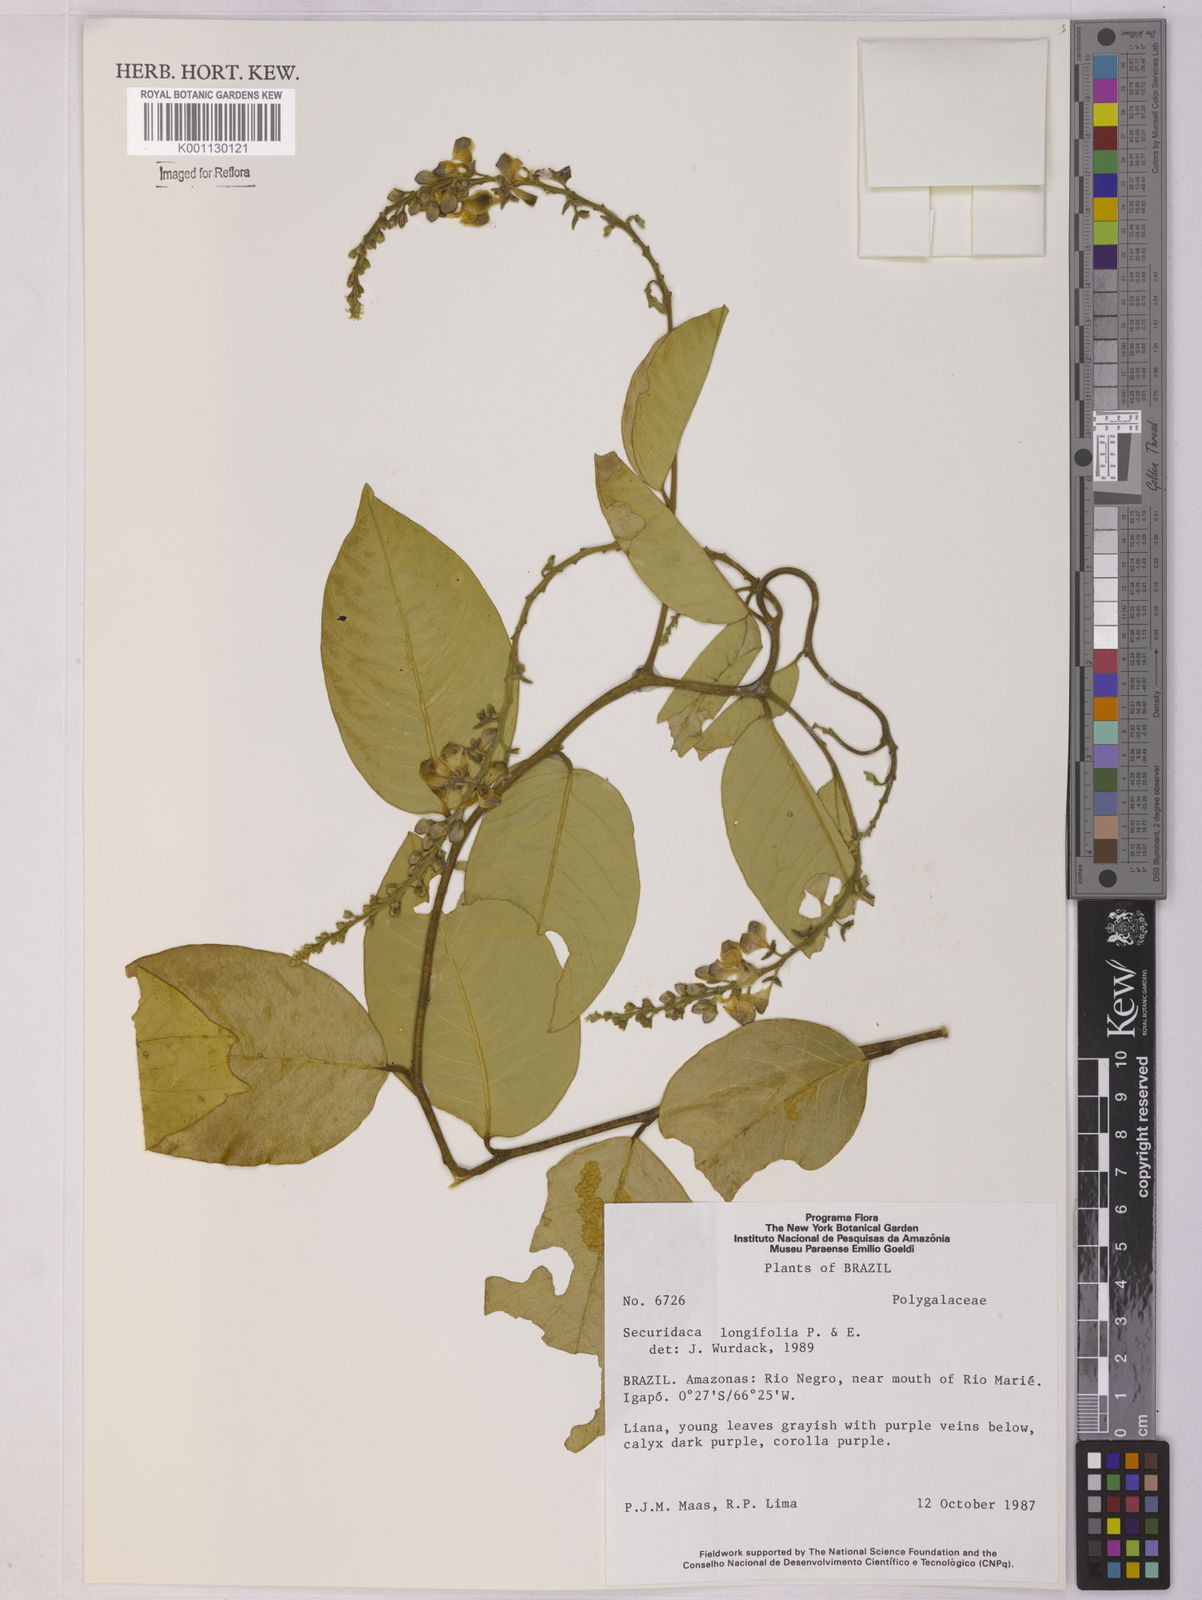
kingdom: Plantae
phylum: Tracheophyta
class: Magnoliopsida
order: Fabales
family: Polygalaceae
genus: Securidaca
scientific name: Securidaca longifolia
